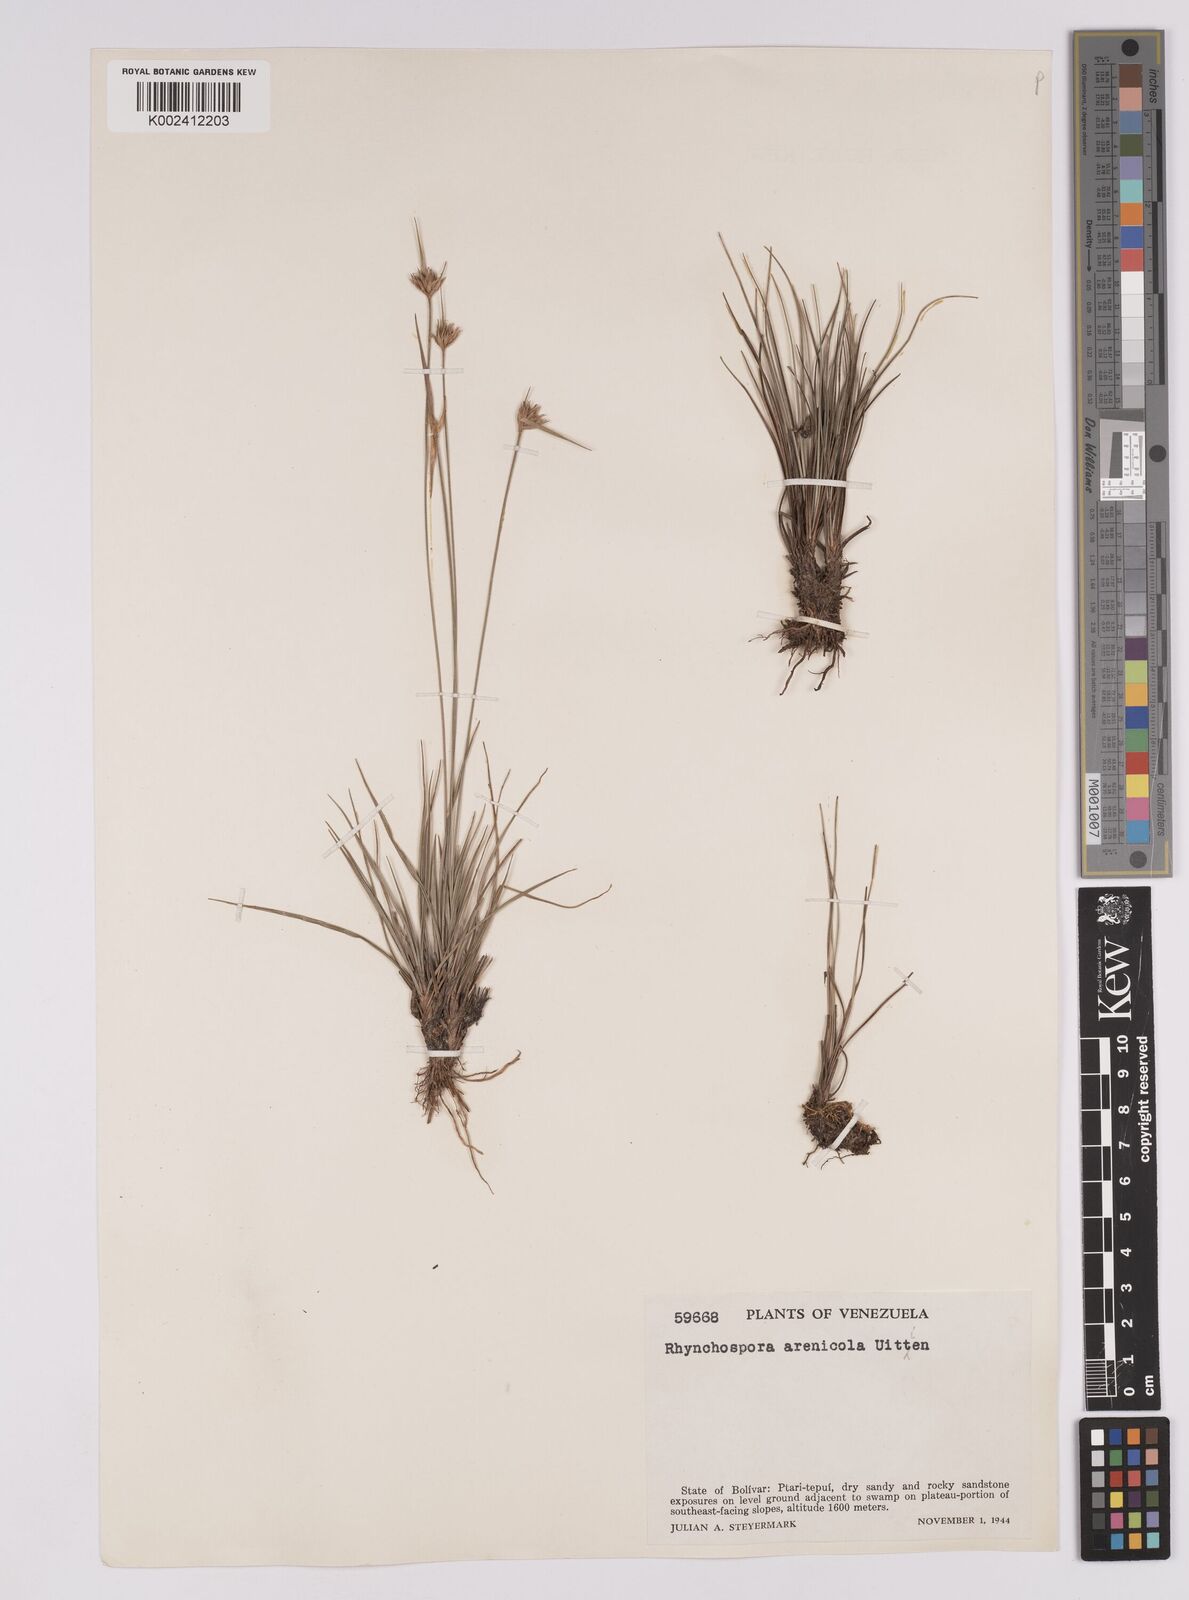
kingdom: Plantae
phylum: Tracheophyta
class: Liliopsida
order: Poales
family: Cyperaceae
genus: Rhynchospora
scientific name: Rhynchospora arenicola
